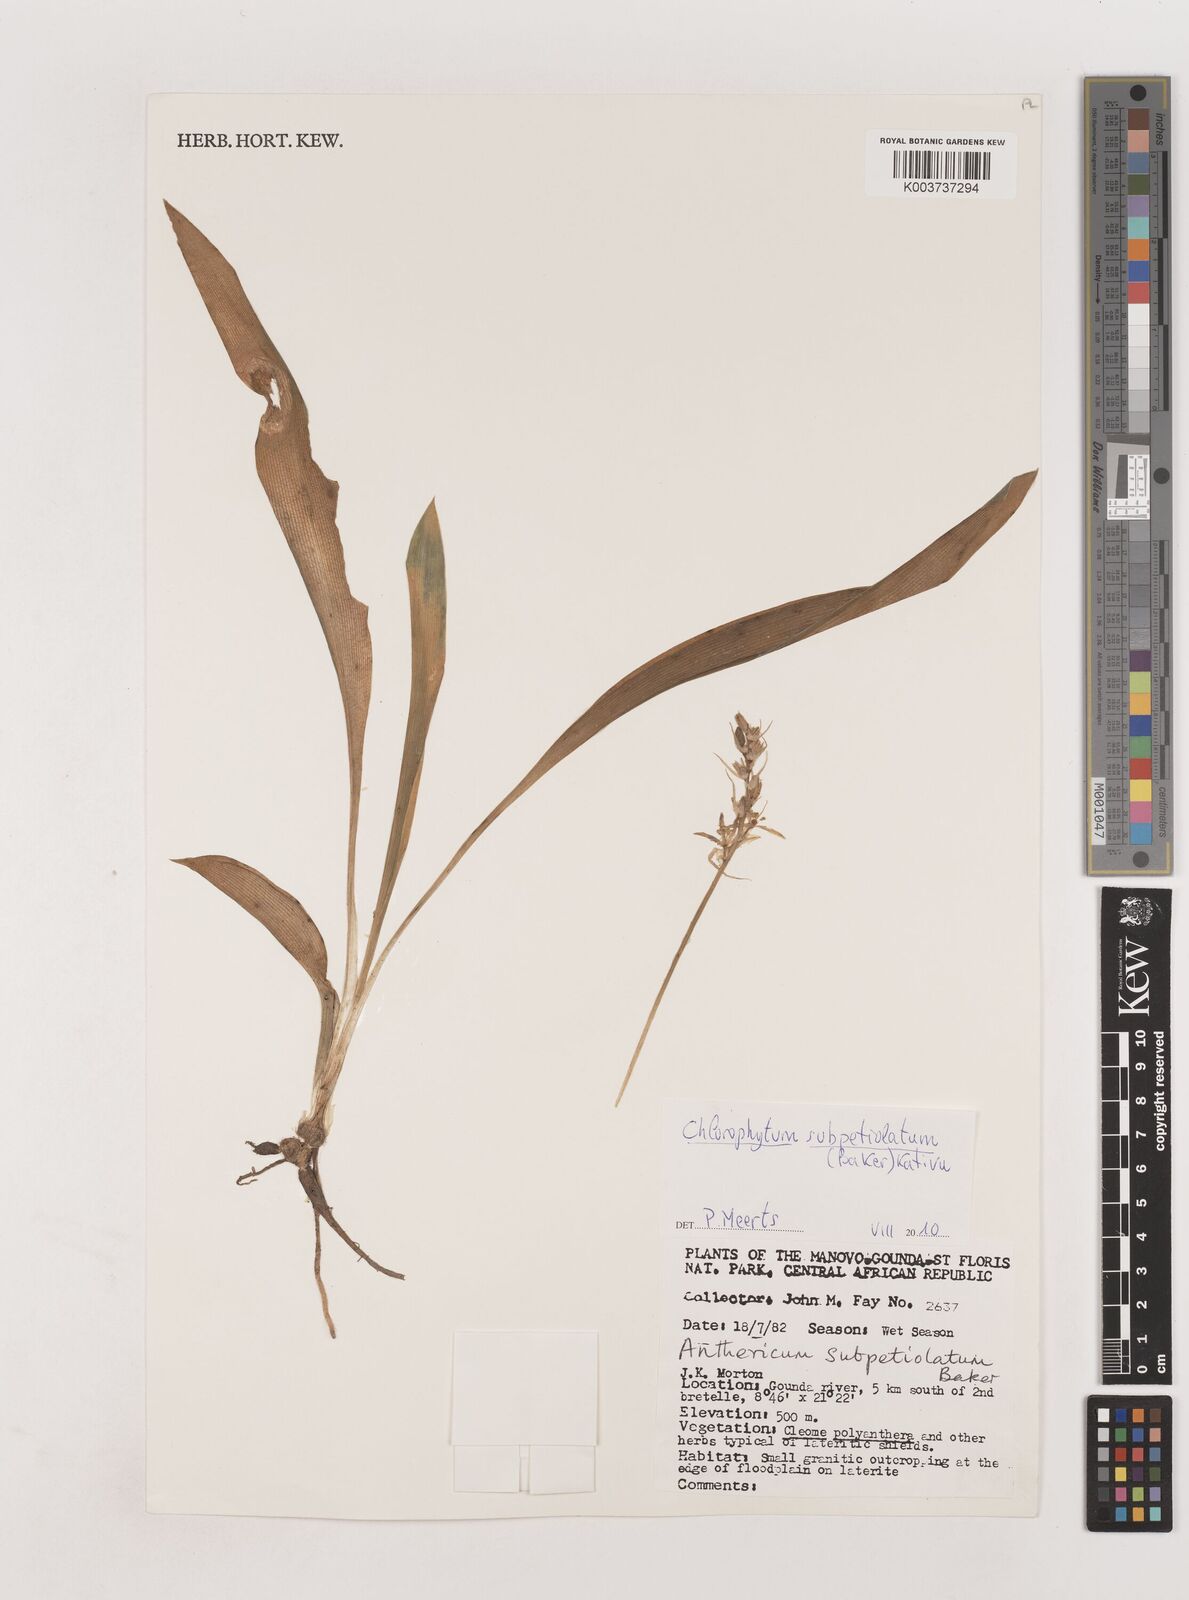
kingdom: Plantae
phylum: Tracheophyta
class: Liliopsida
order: Asparagales
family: Asparagaceae
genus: Chlorophytum
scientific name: Chlorophytum subpetiolatum
